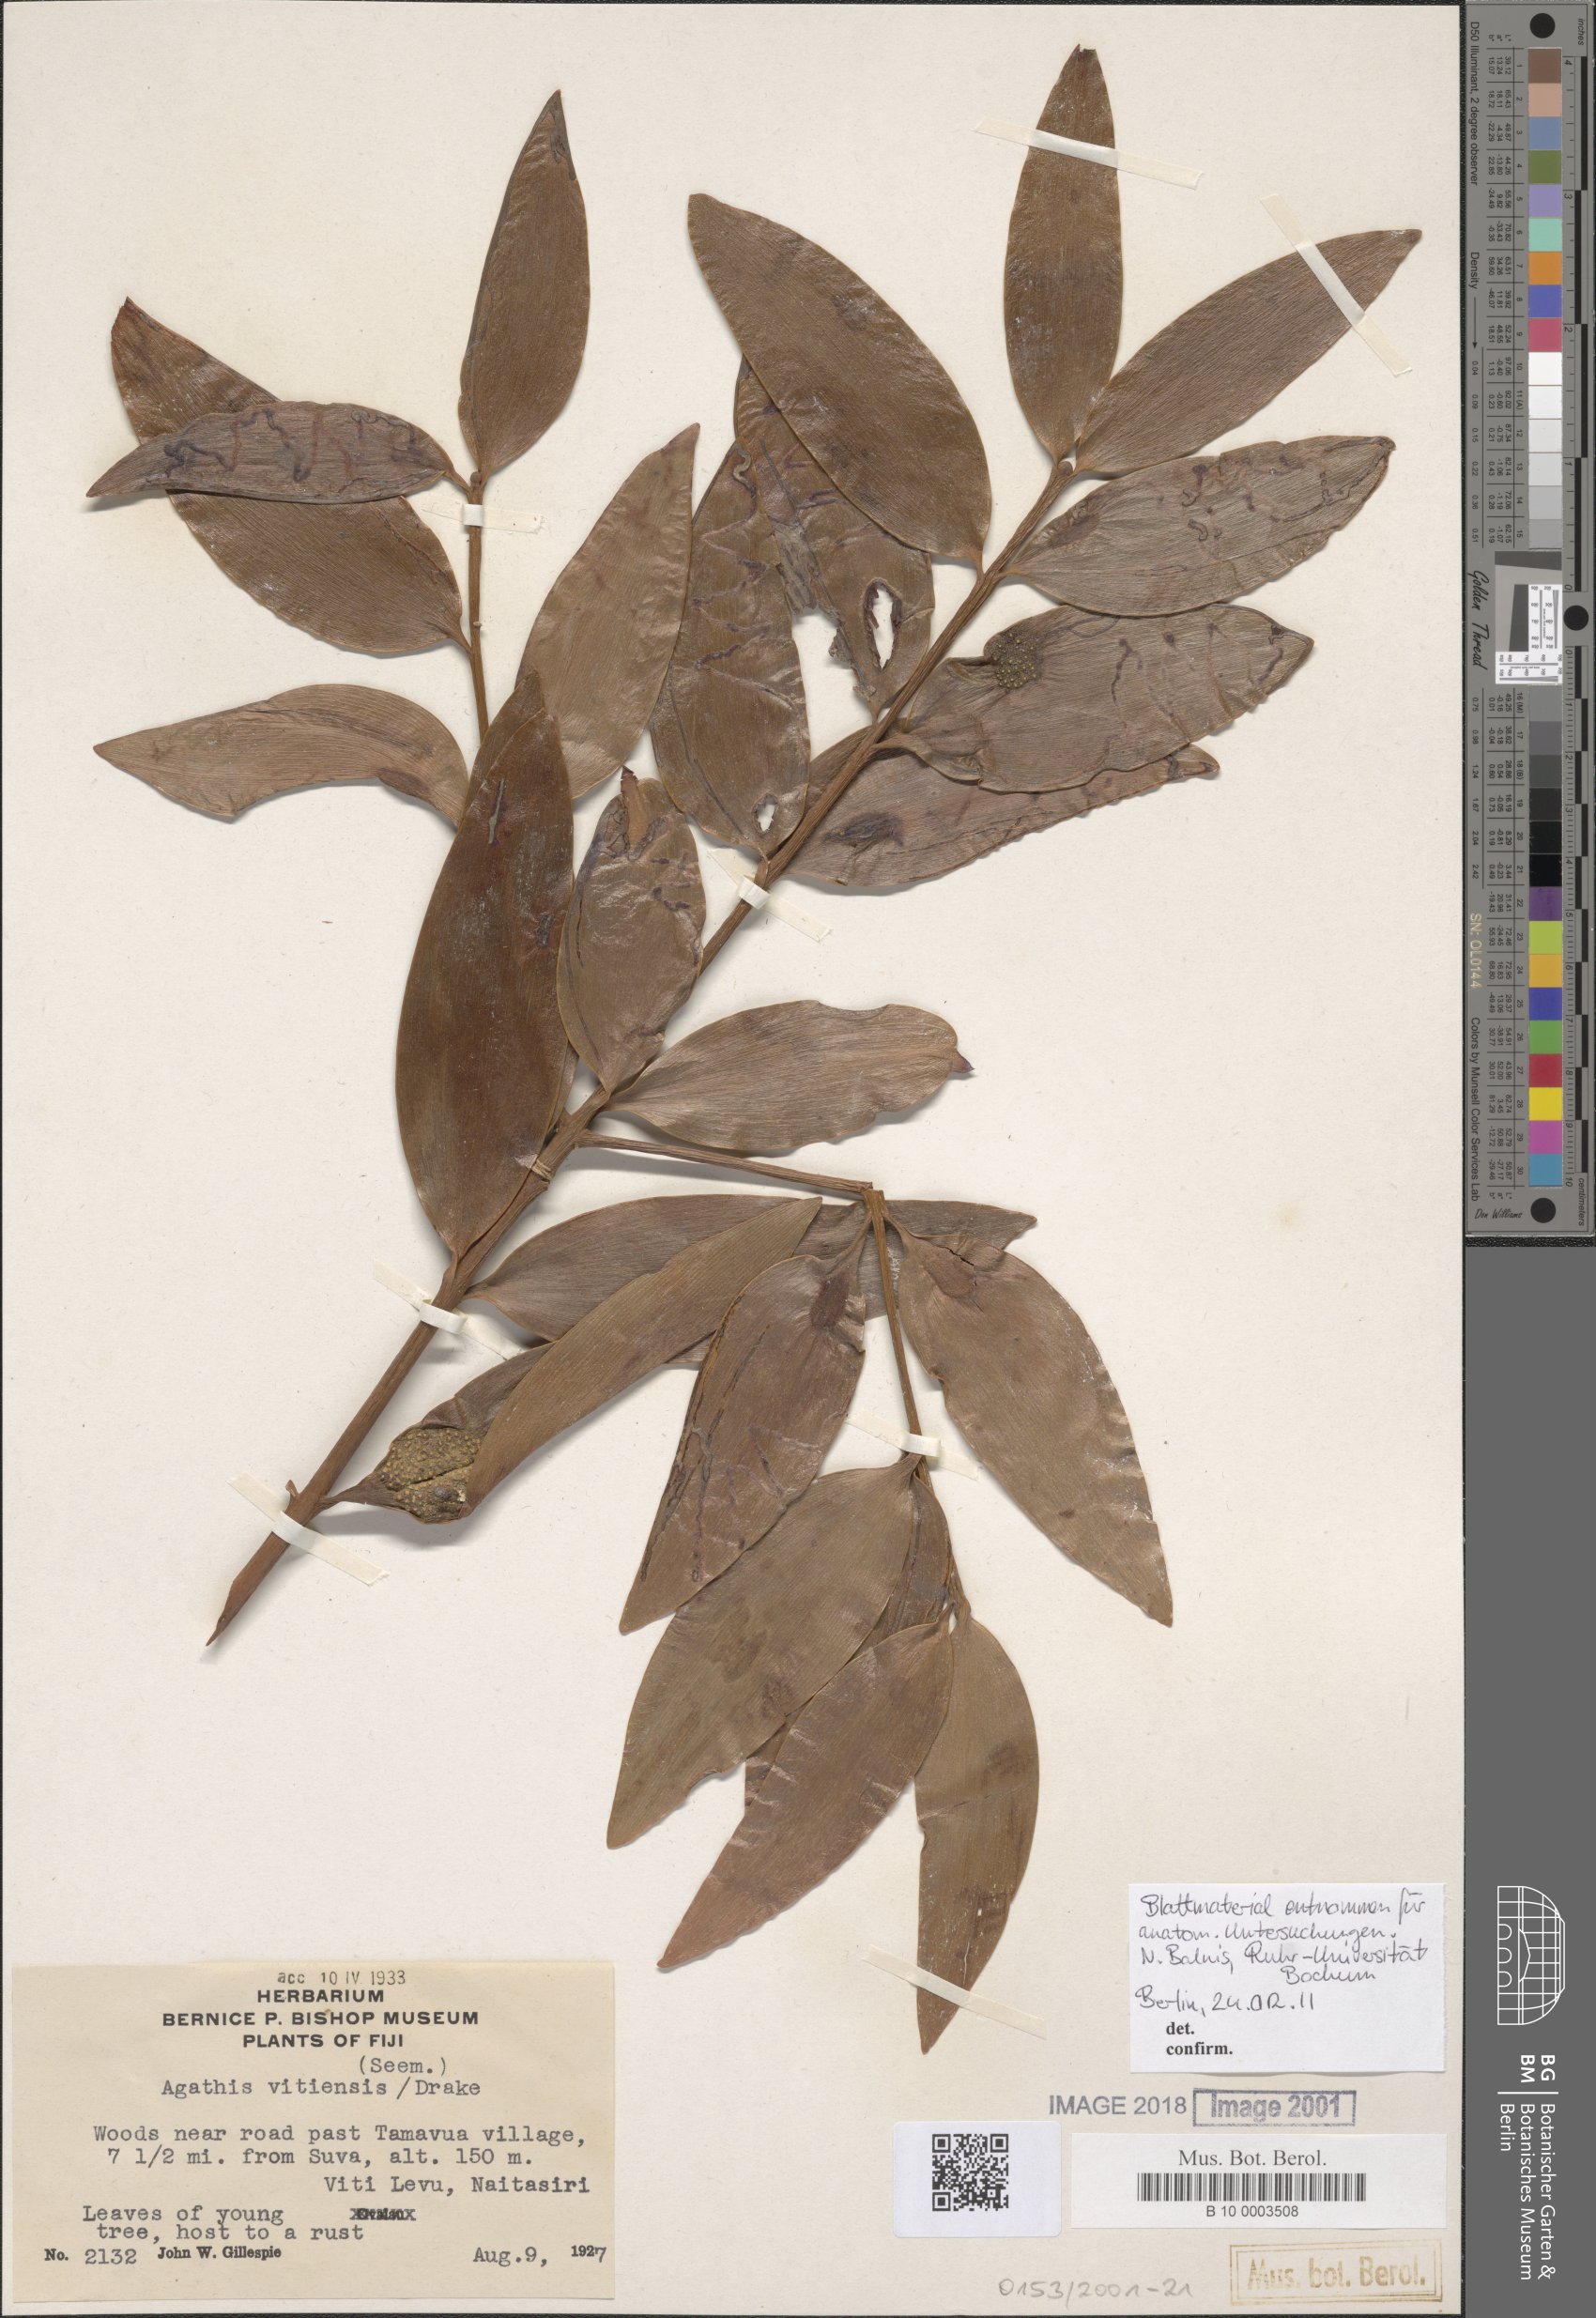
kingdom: Plantae
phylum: Tracheophyta
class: Pinopsida
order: Pinales
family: Araucariaceae
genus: Agathis
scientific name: Agathis macrophylla
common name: Fijian kauri pine
